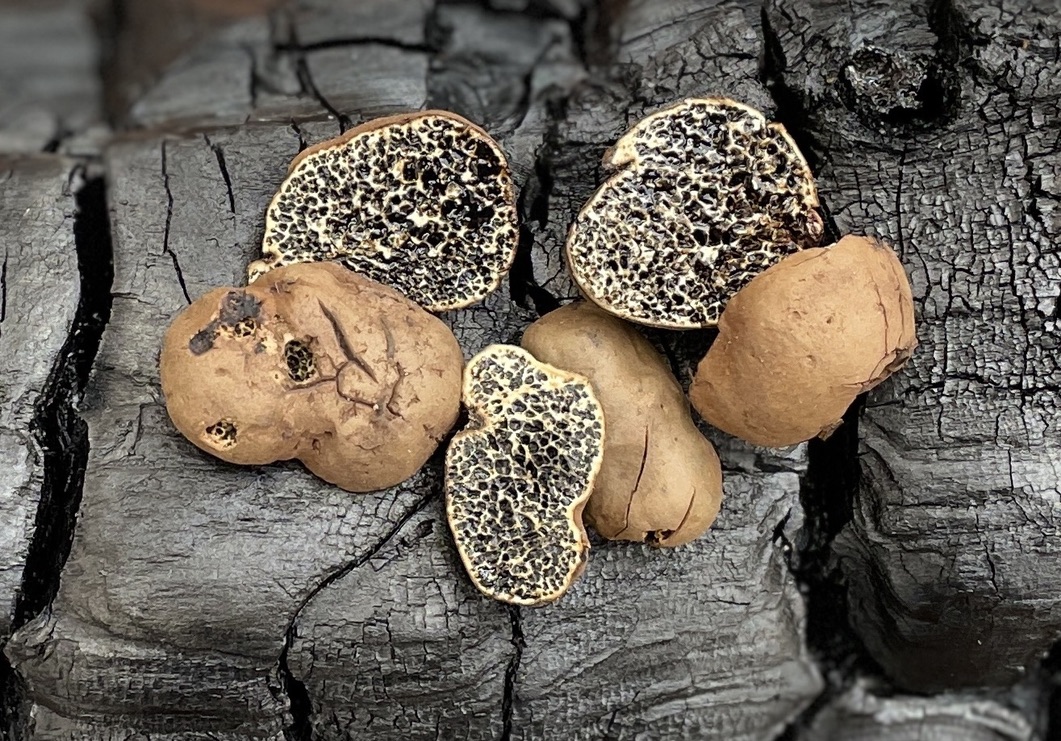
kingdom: Fungi
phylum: Basidiomycota
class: Agaricomycetes
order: Boletales
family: Paxillaceae
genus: Melanogaster
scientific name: Melanogaster ambiguus
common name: lille slimtrøffel
